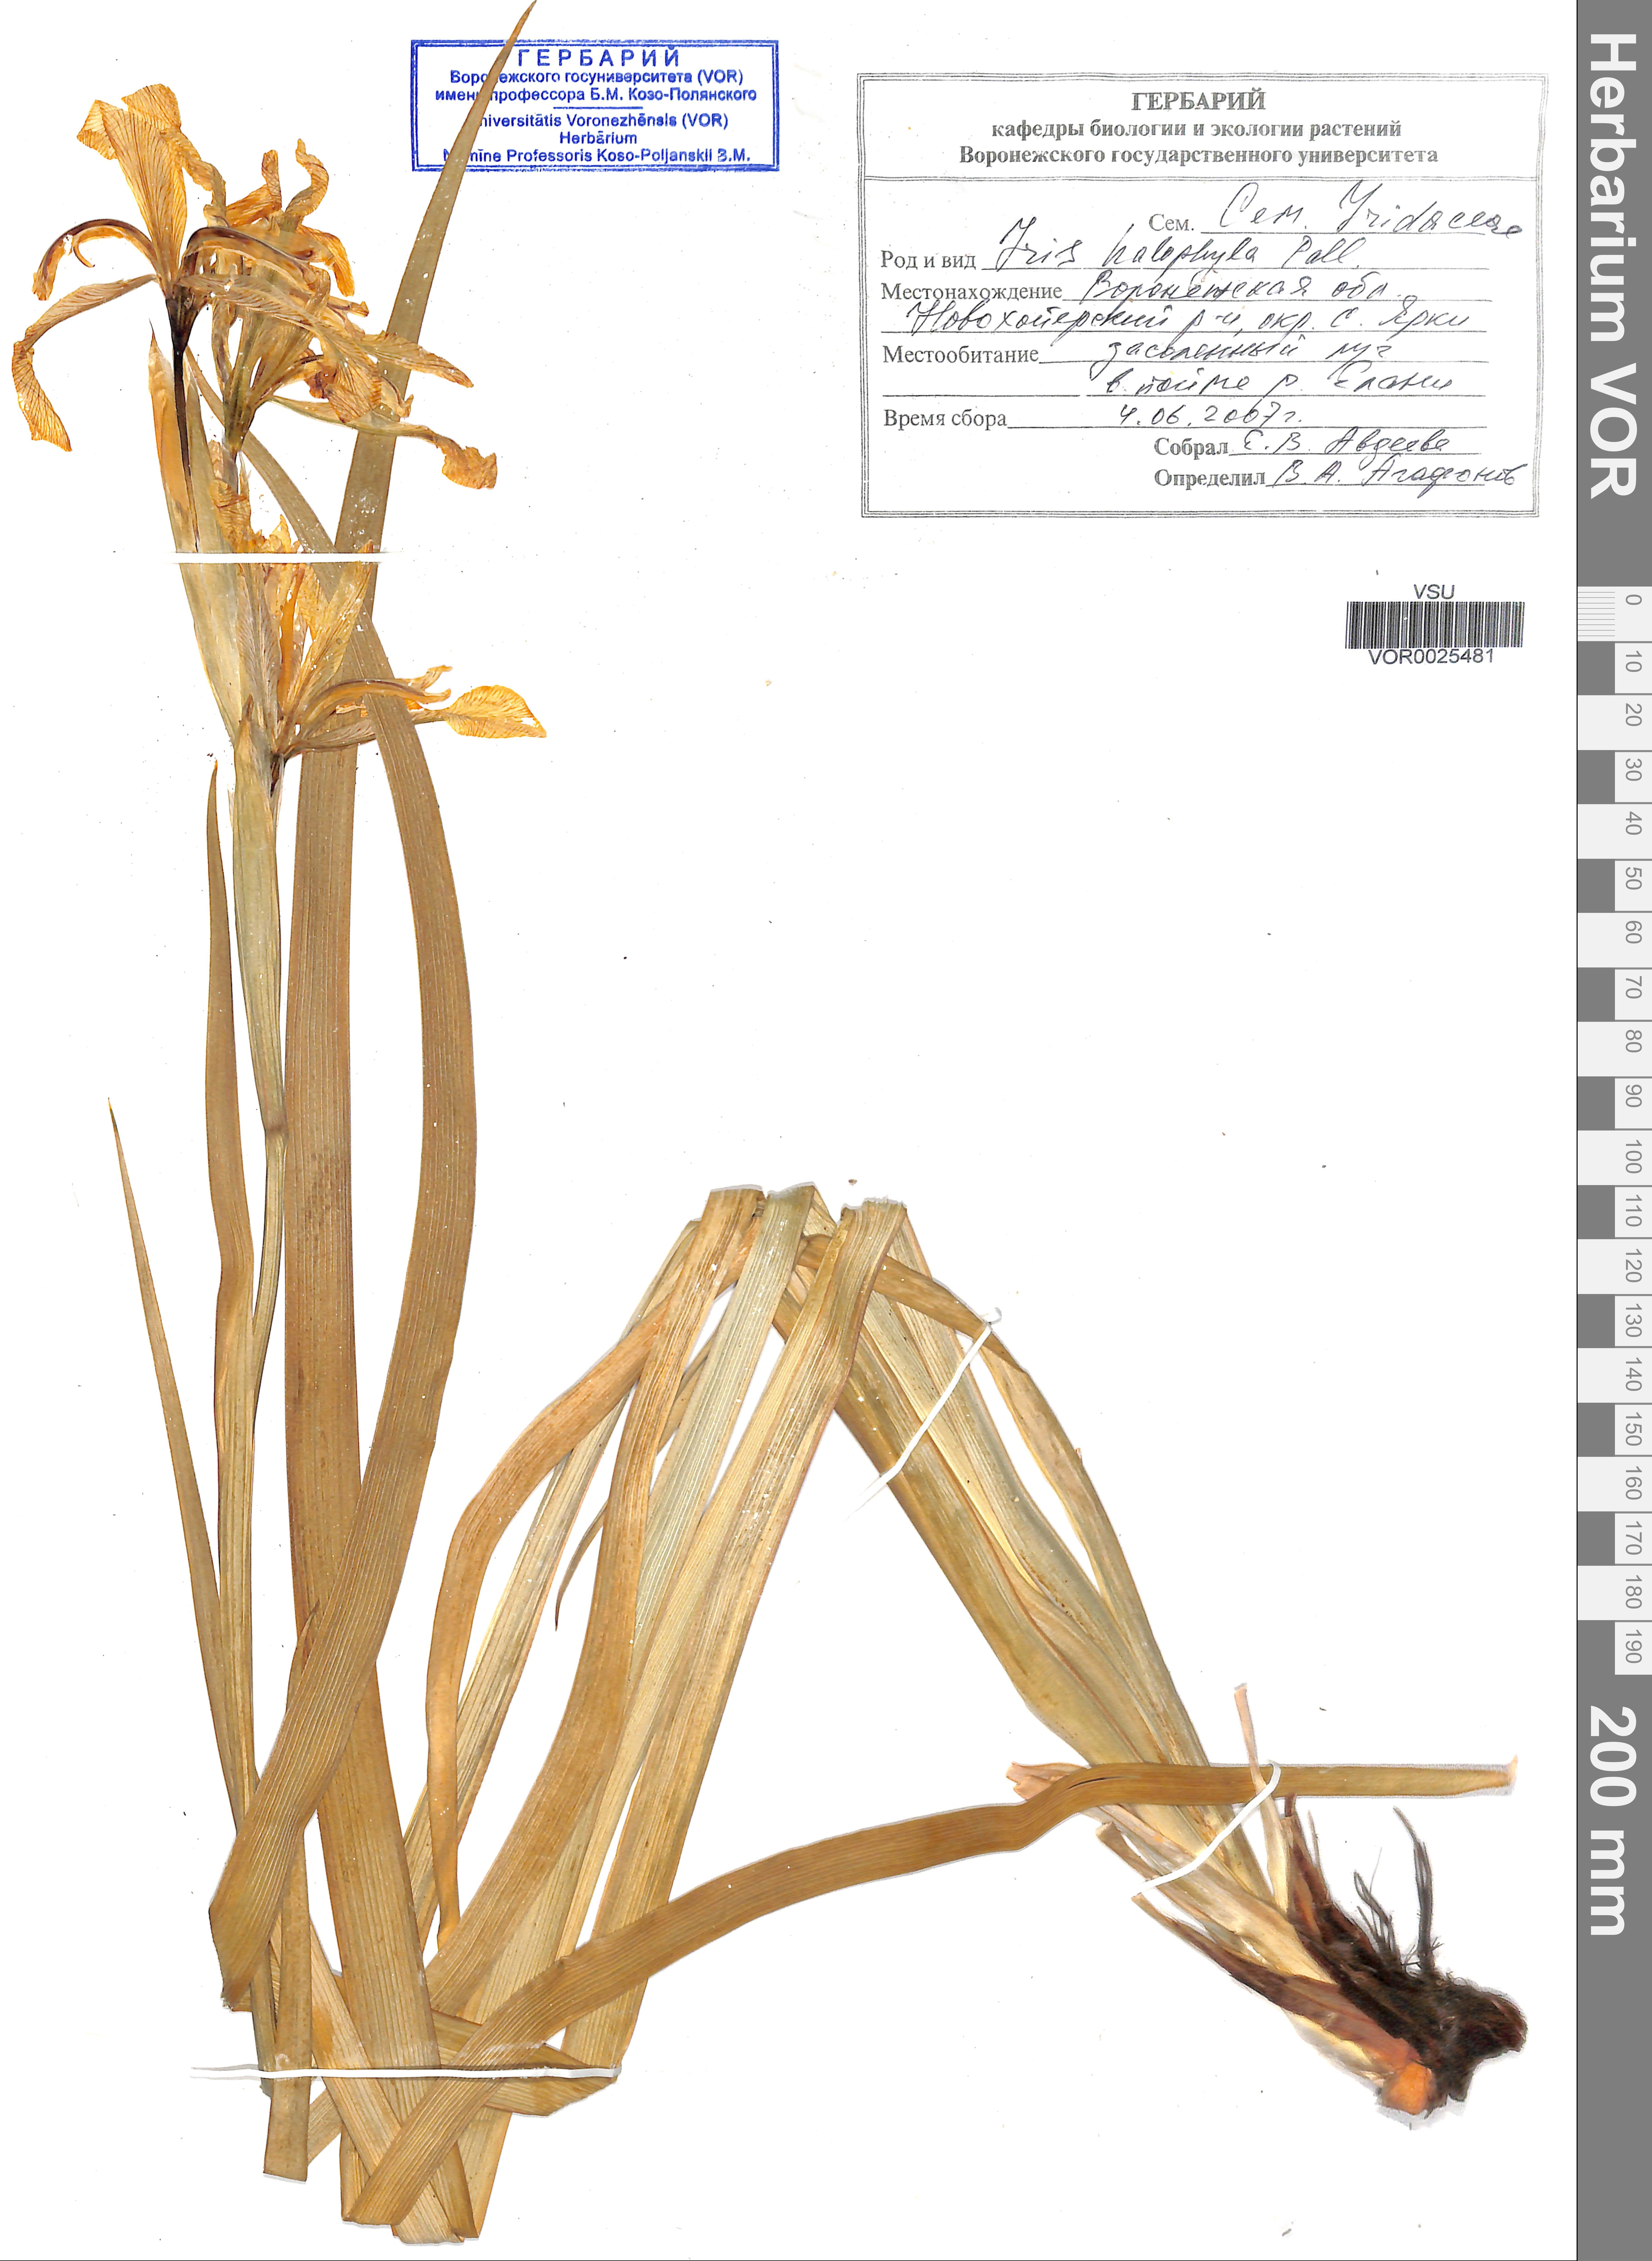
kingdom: Plantae
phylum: Tracheophyta
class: Liliopsida
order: Asparagales
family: Iridaceae
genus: Iris
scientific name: Iris halophila
